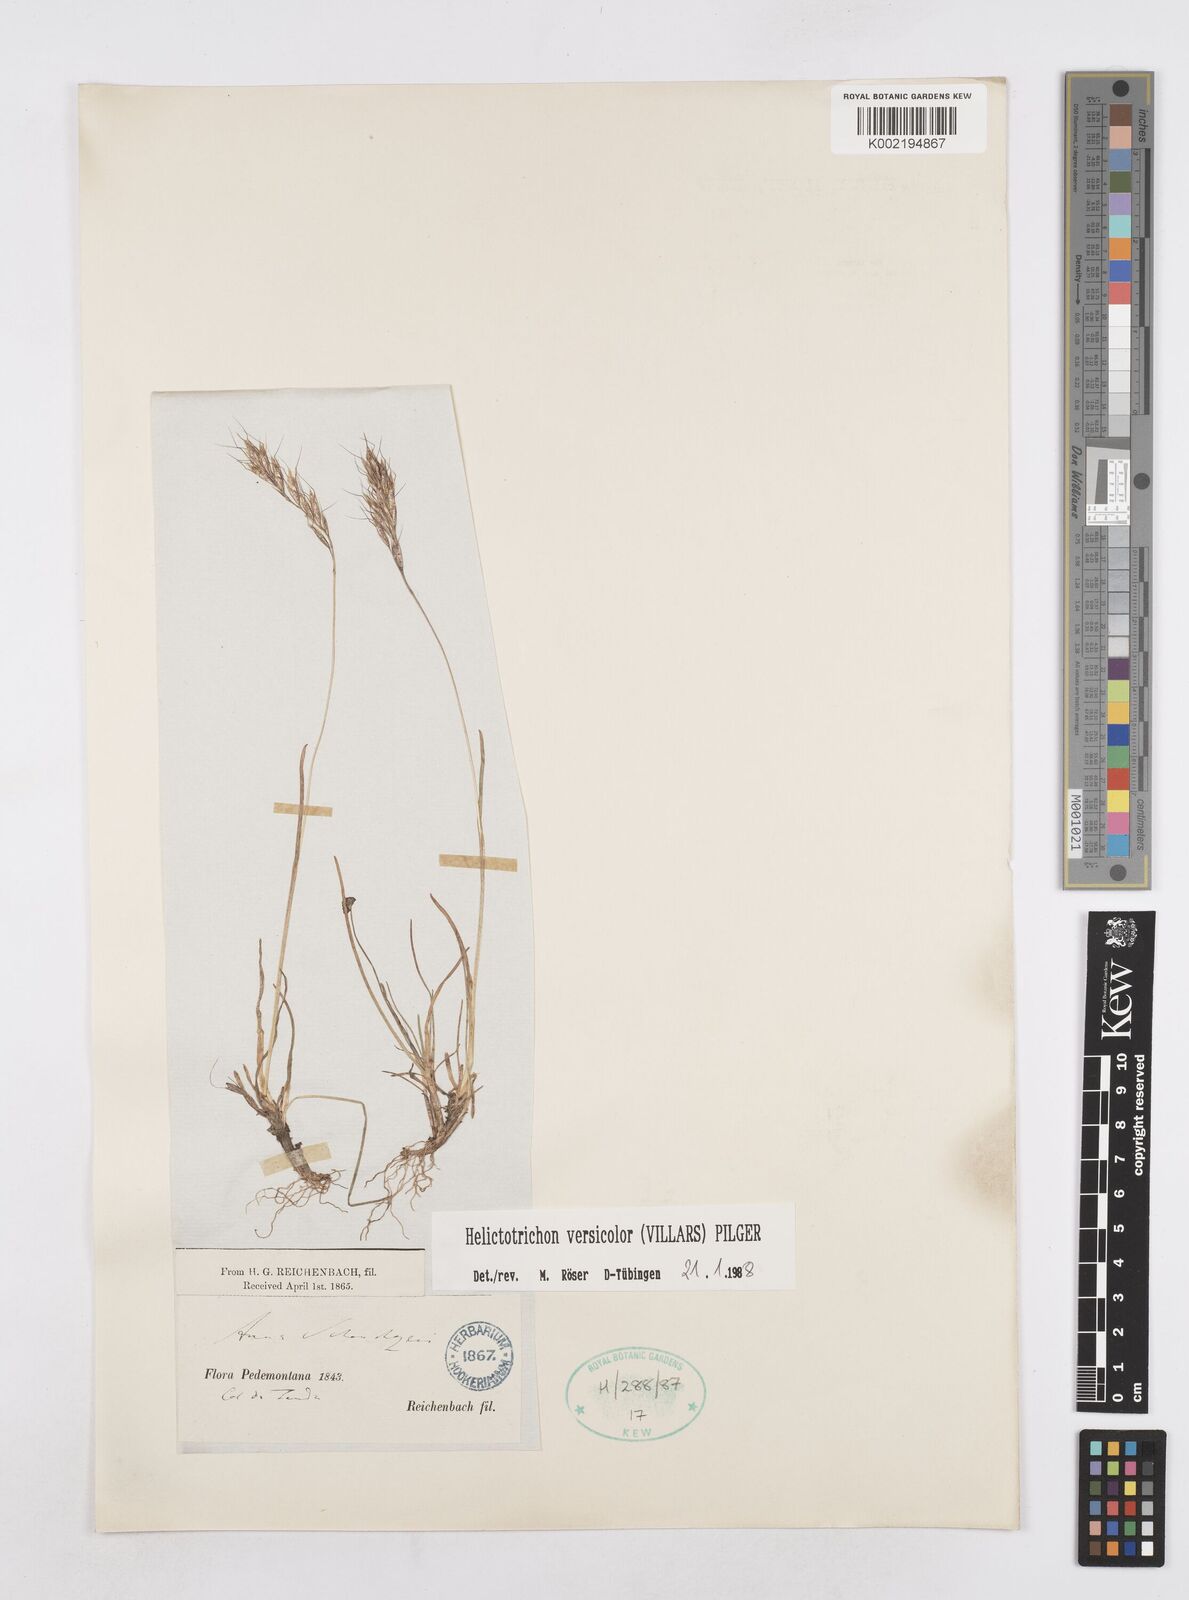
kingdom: Plantae
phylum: Tracheophyta
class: Liliopsida
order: Poales
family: Poaceae
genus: Helictochloa
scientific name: Helictochloa versicolor
